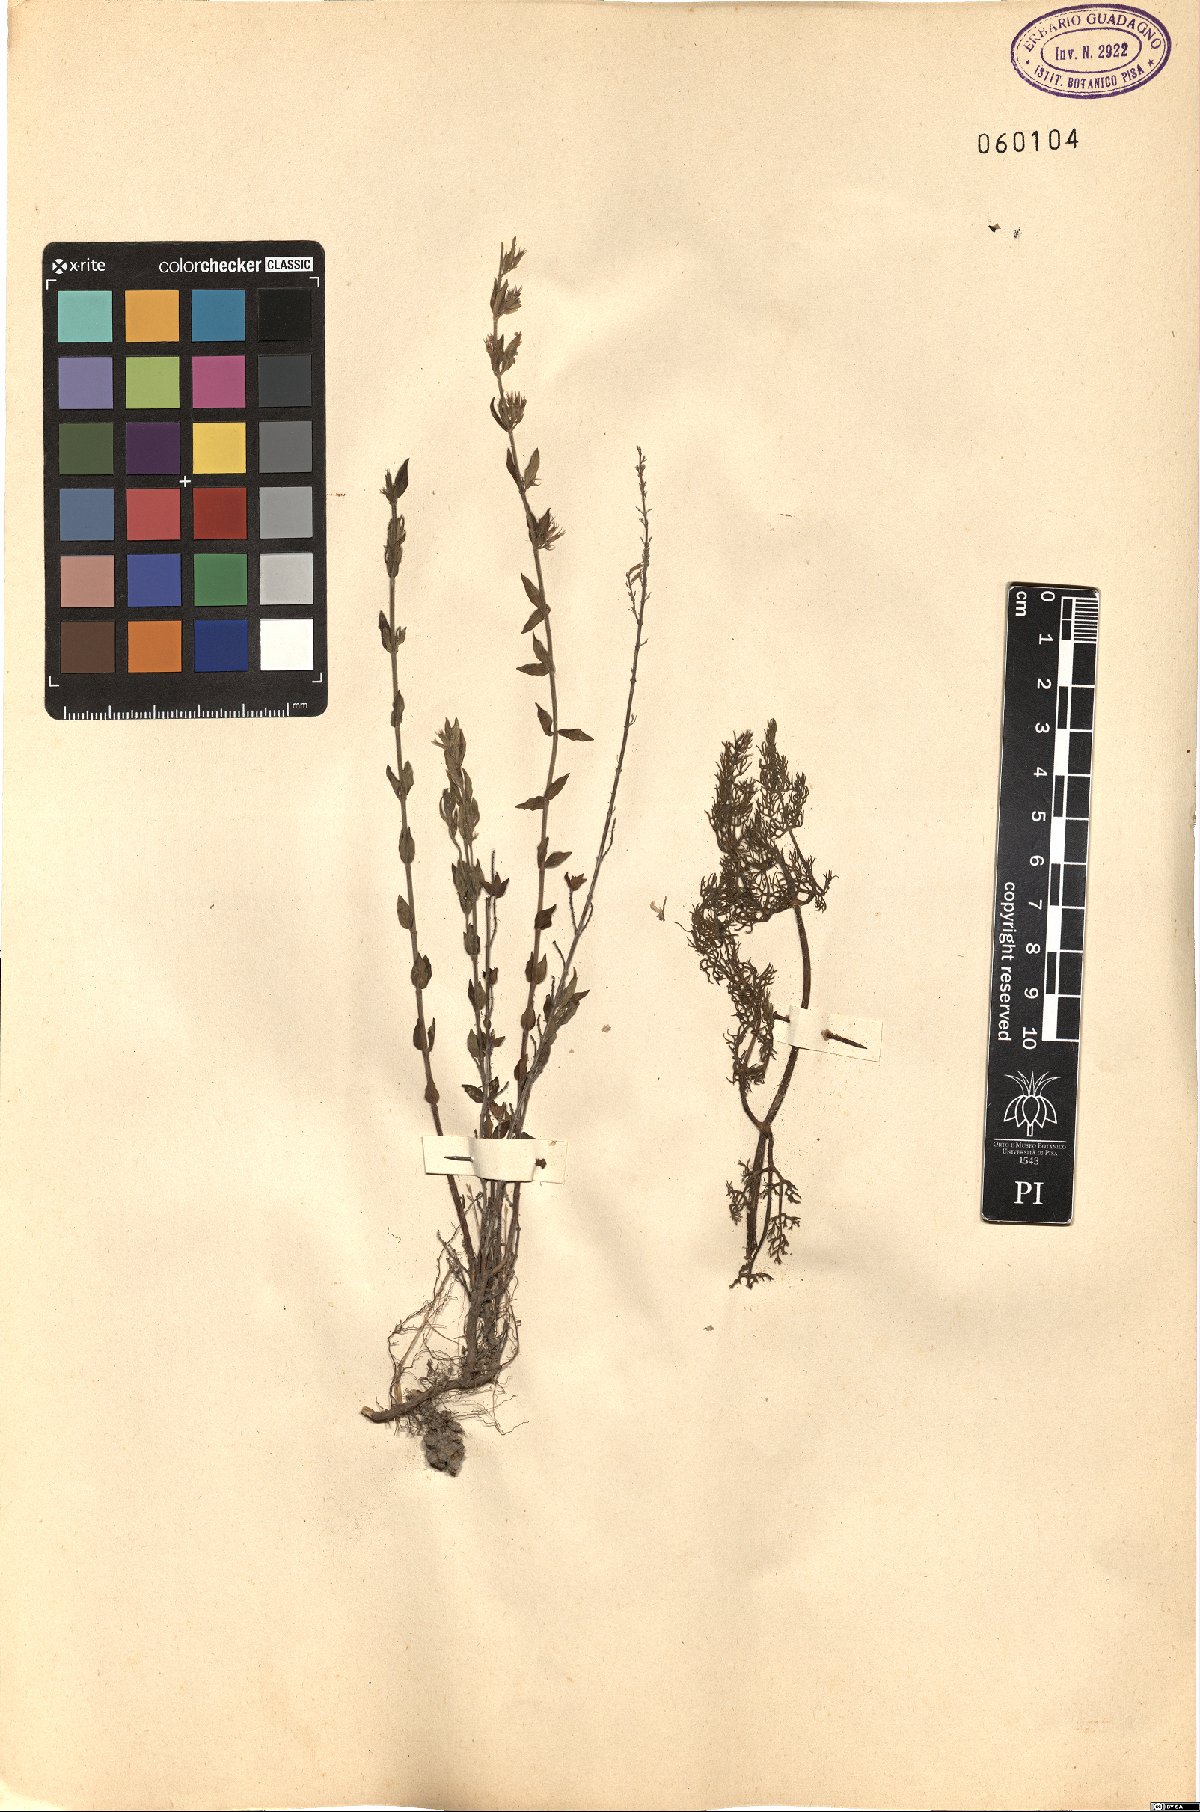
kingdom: Plantae
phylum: Tracheophyta
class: Magnoliopsida
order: Lamiales
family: Lamiaceae
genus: Micromeria
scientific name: Micromeria
